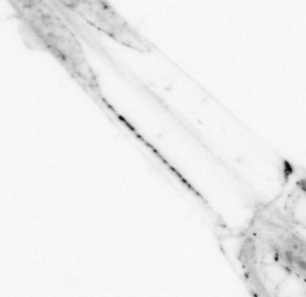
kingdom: Animalia
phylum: Chaetognatha
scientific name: Chaetognatha
